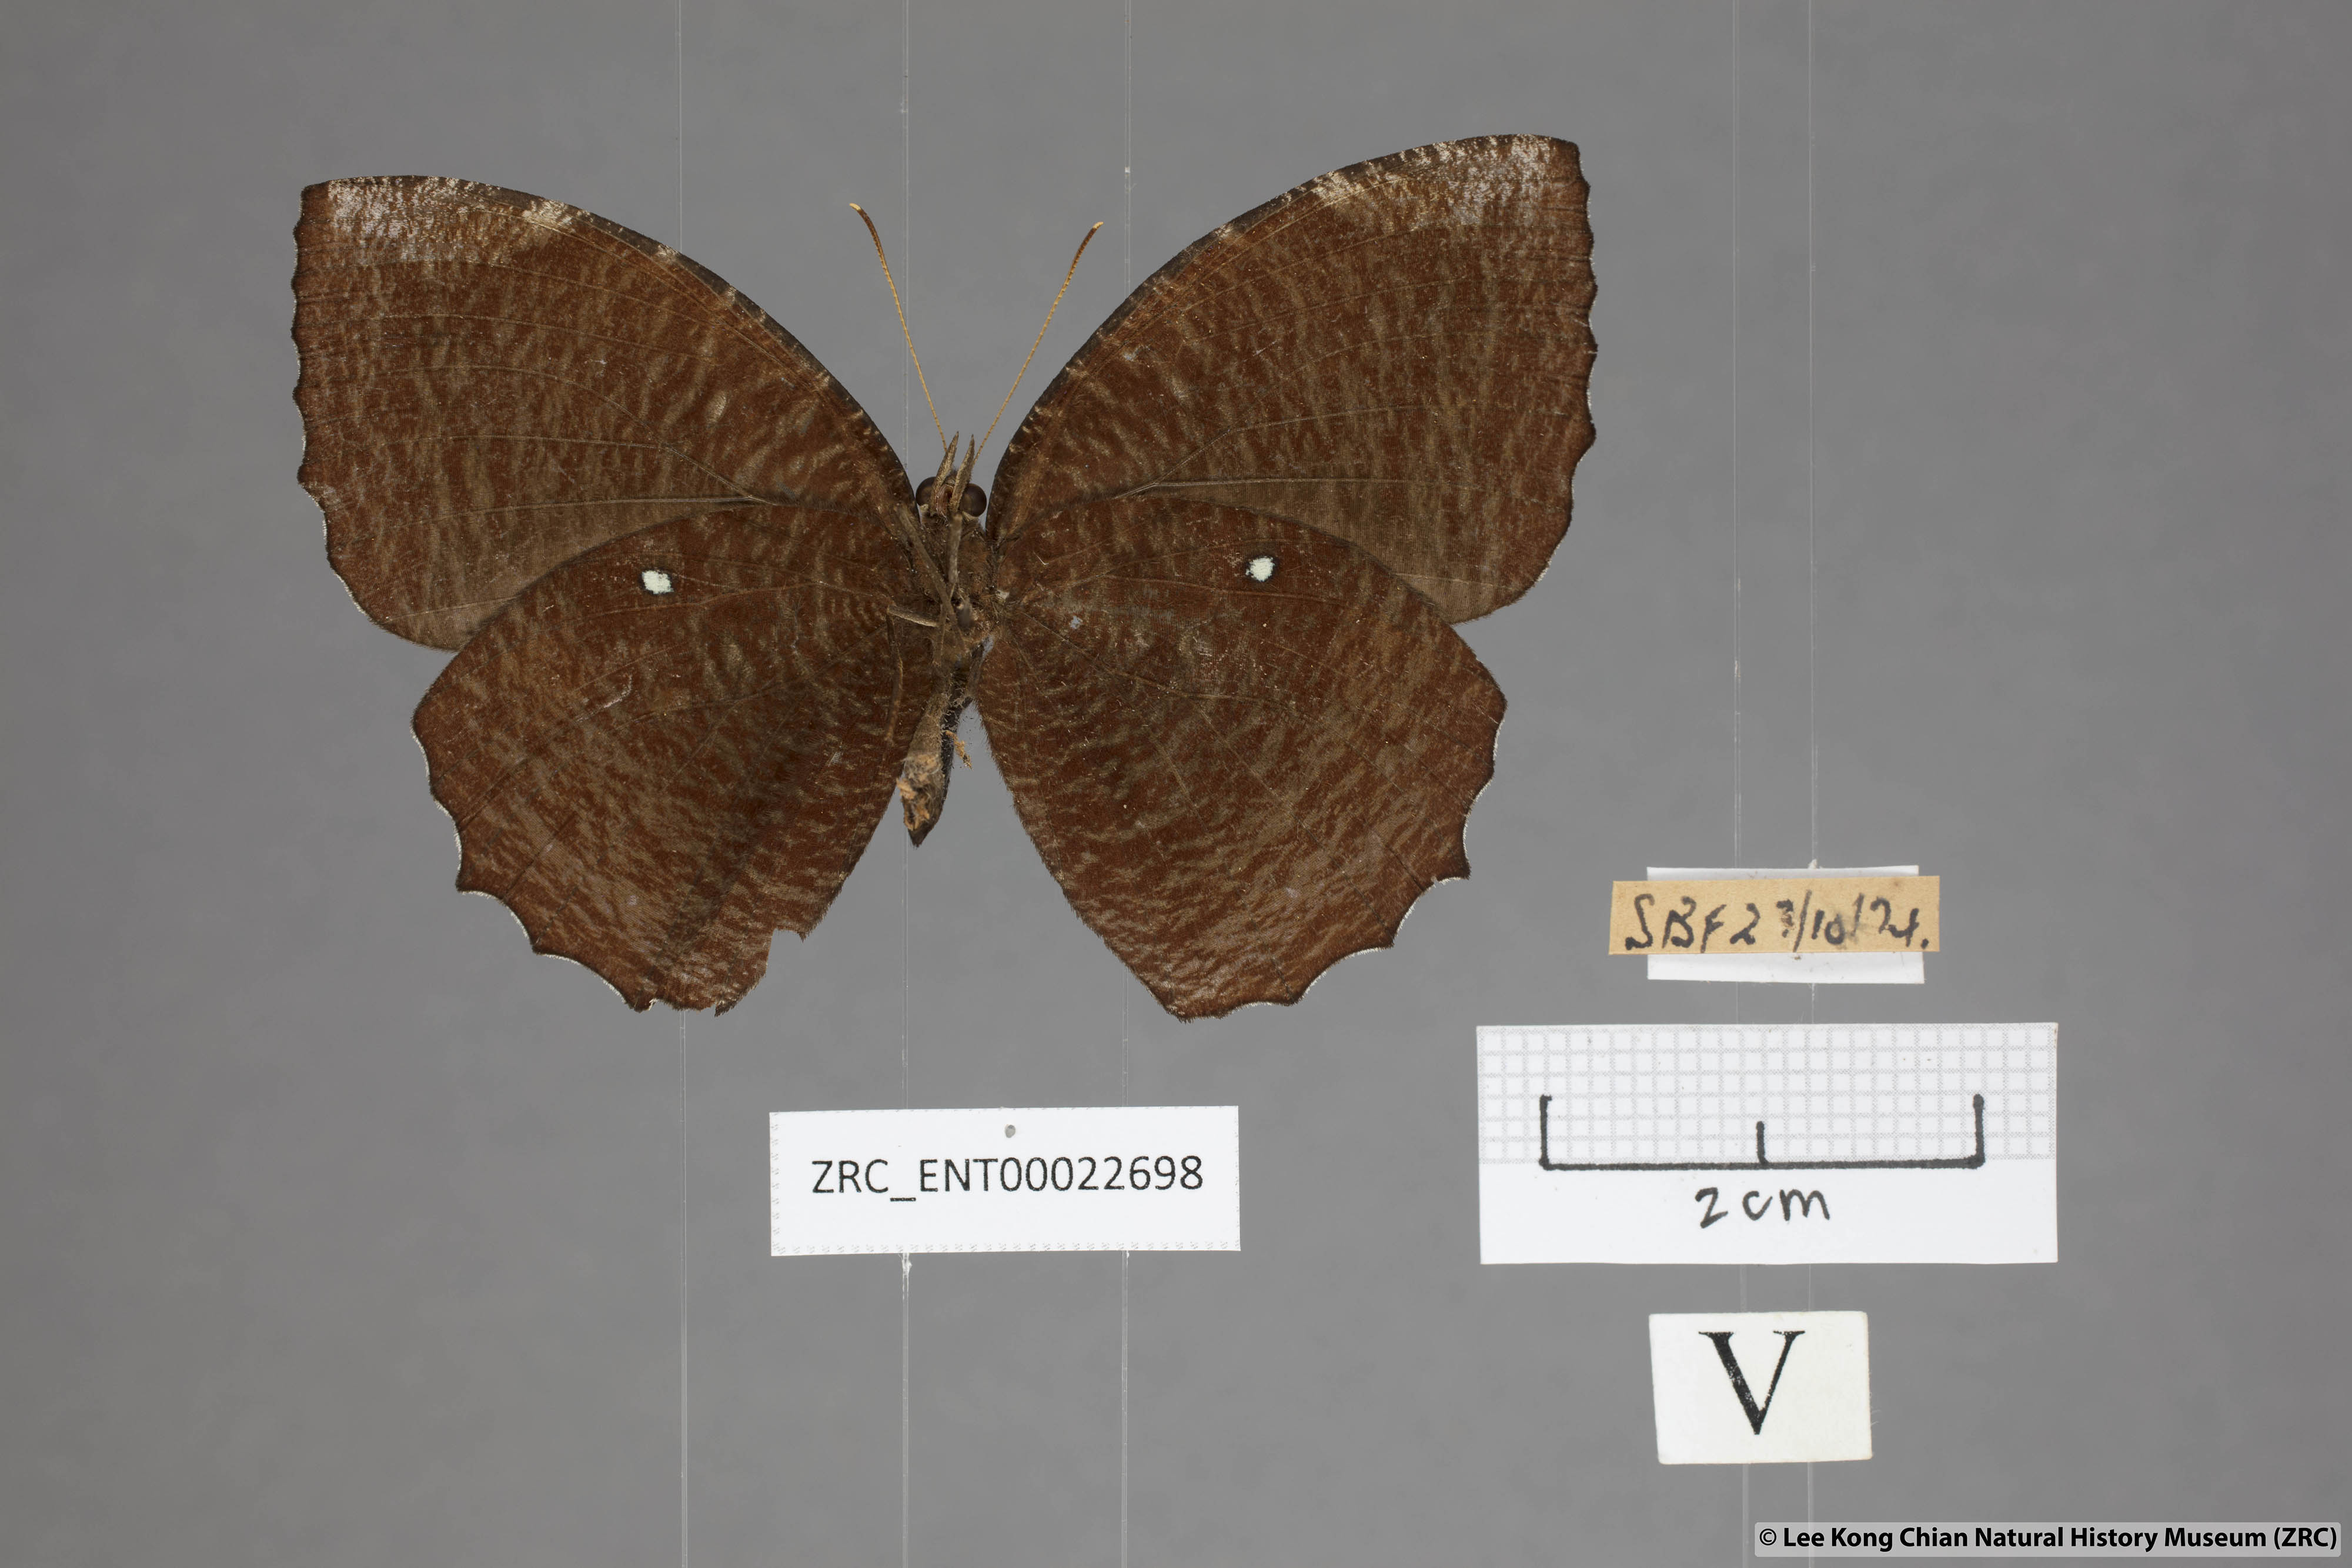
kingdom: Animalia
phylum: Arthropoda
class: Insecta
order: Lepidoptera
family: Nymphalidae
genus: Elymnias
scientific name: Elymnias hypermnestra
